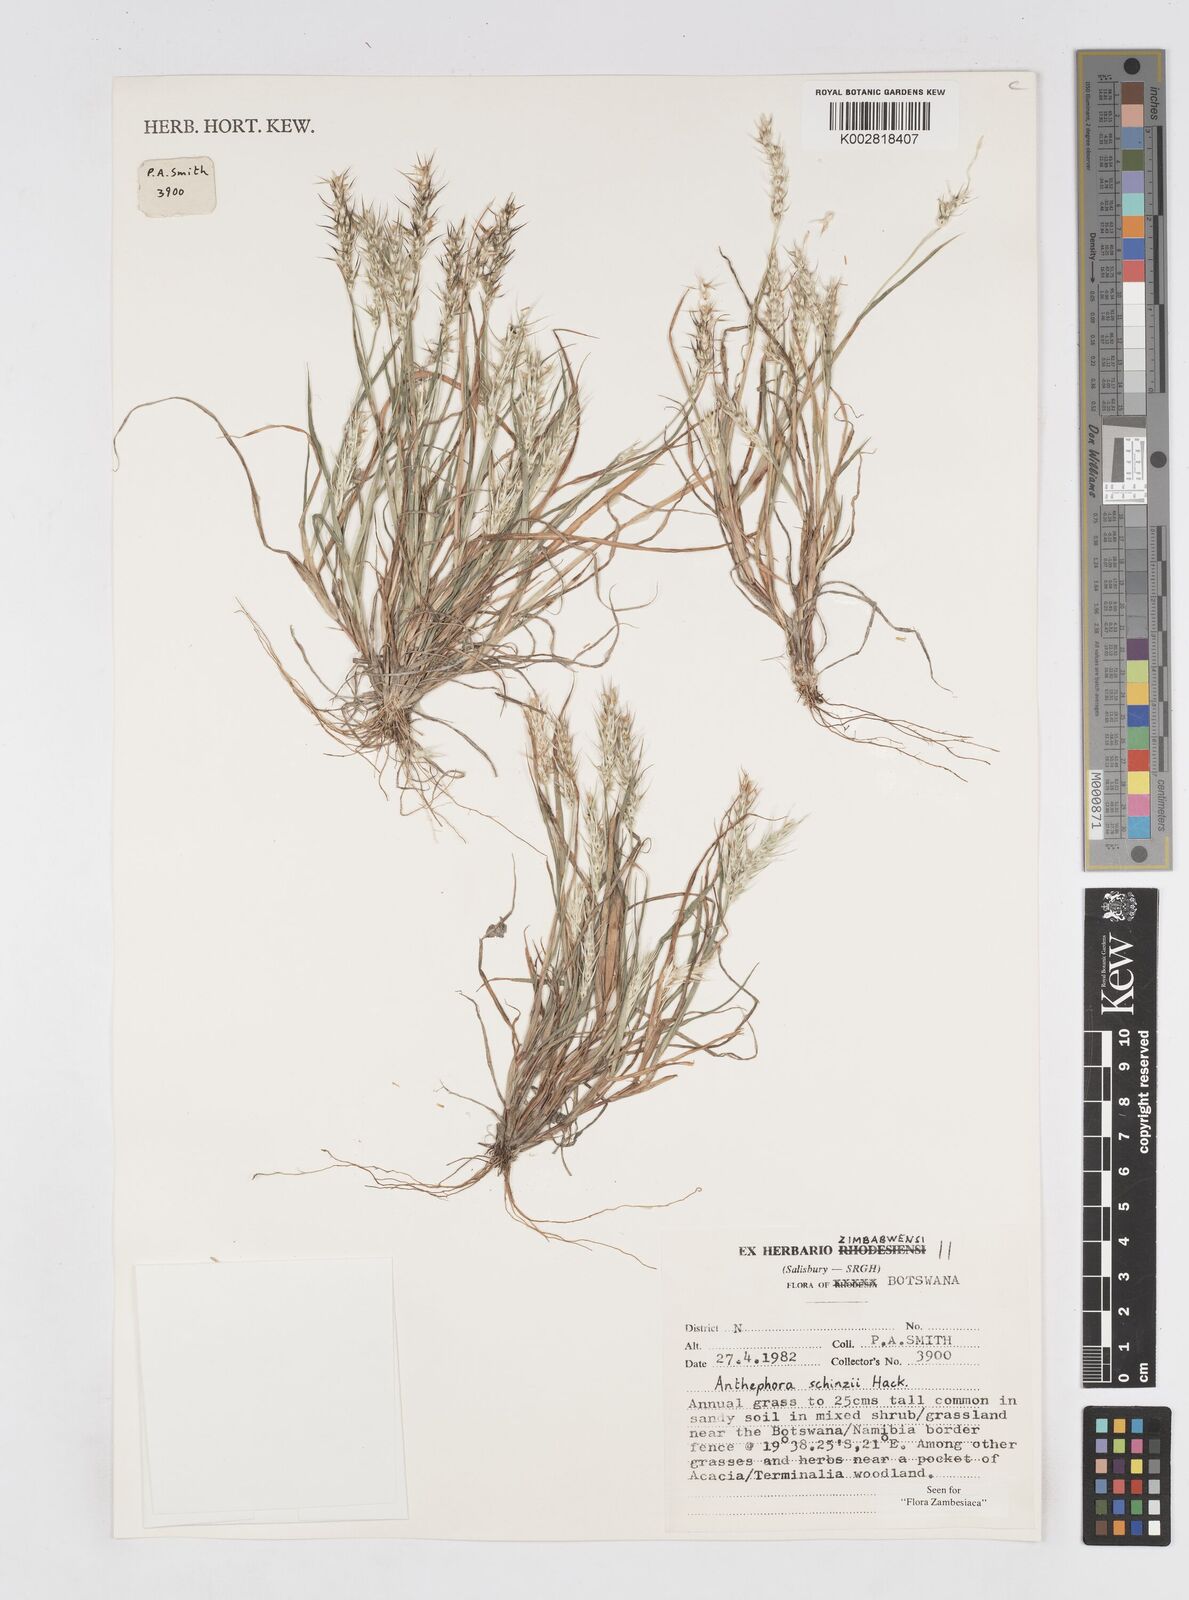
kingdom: Plantae
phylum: Tracheophyta
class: Liliopsida
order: Poales
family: Poaceae
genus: Anthephora
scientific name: Anthephora schinzii
